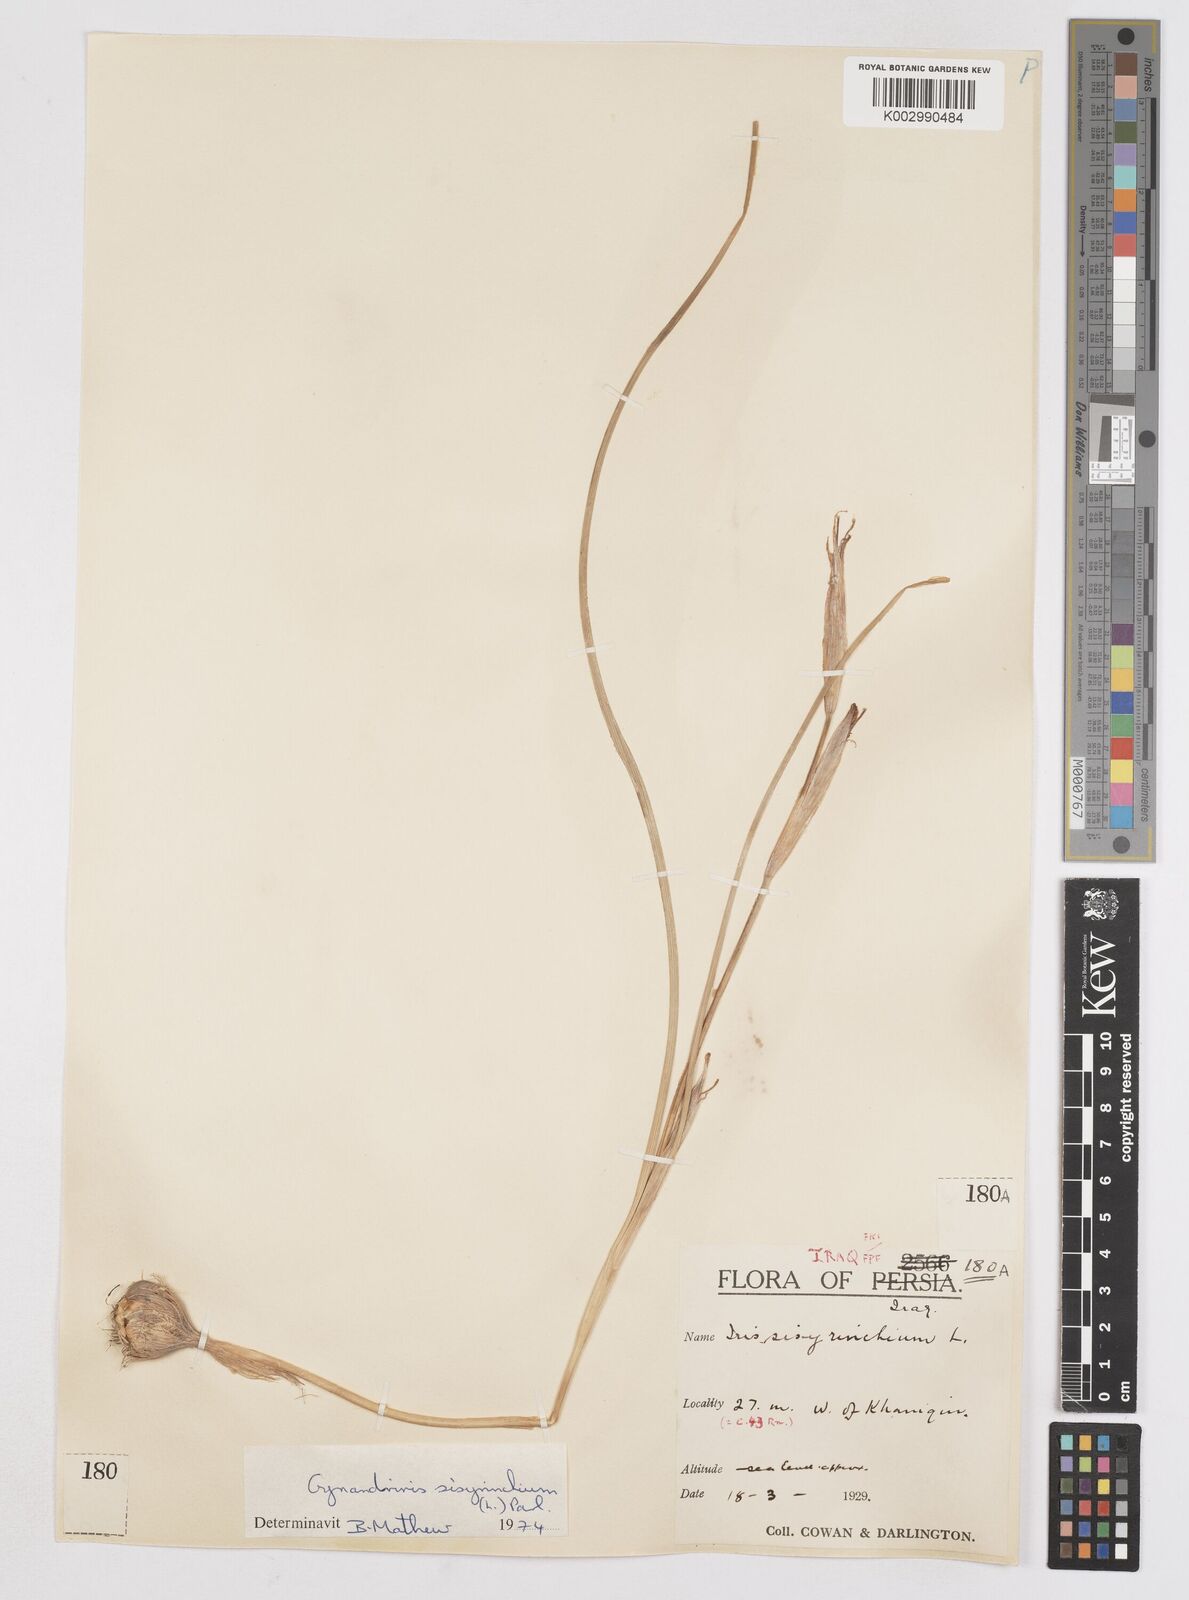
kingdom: Plantae
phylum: Tracheophyta
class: Liliopsida
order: Asparagales
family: Iridaceae
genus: Moraea
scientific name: Moraea sisyrinchium
